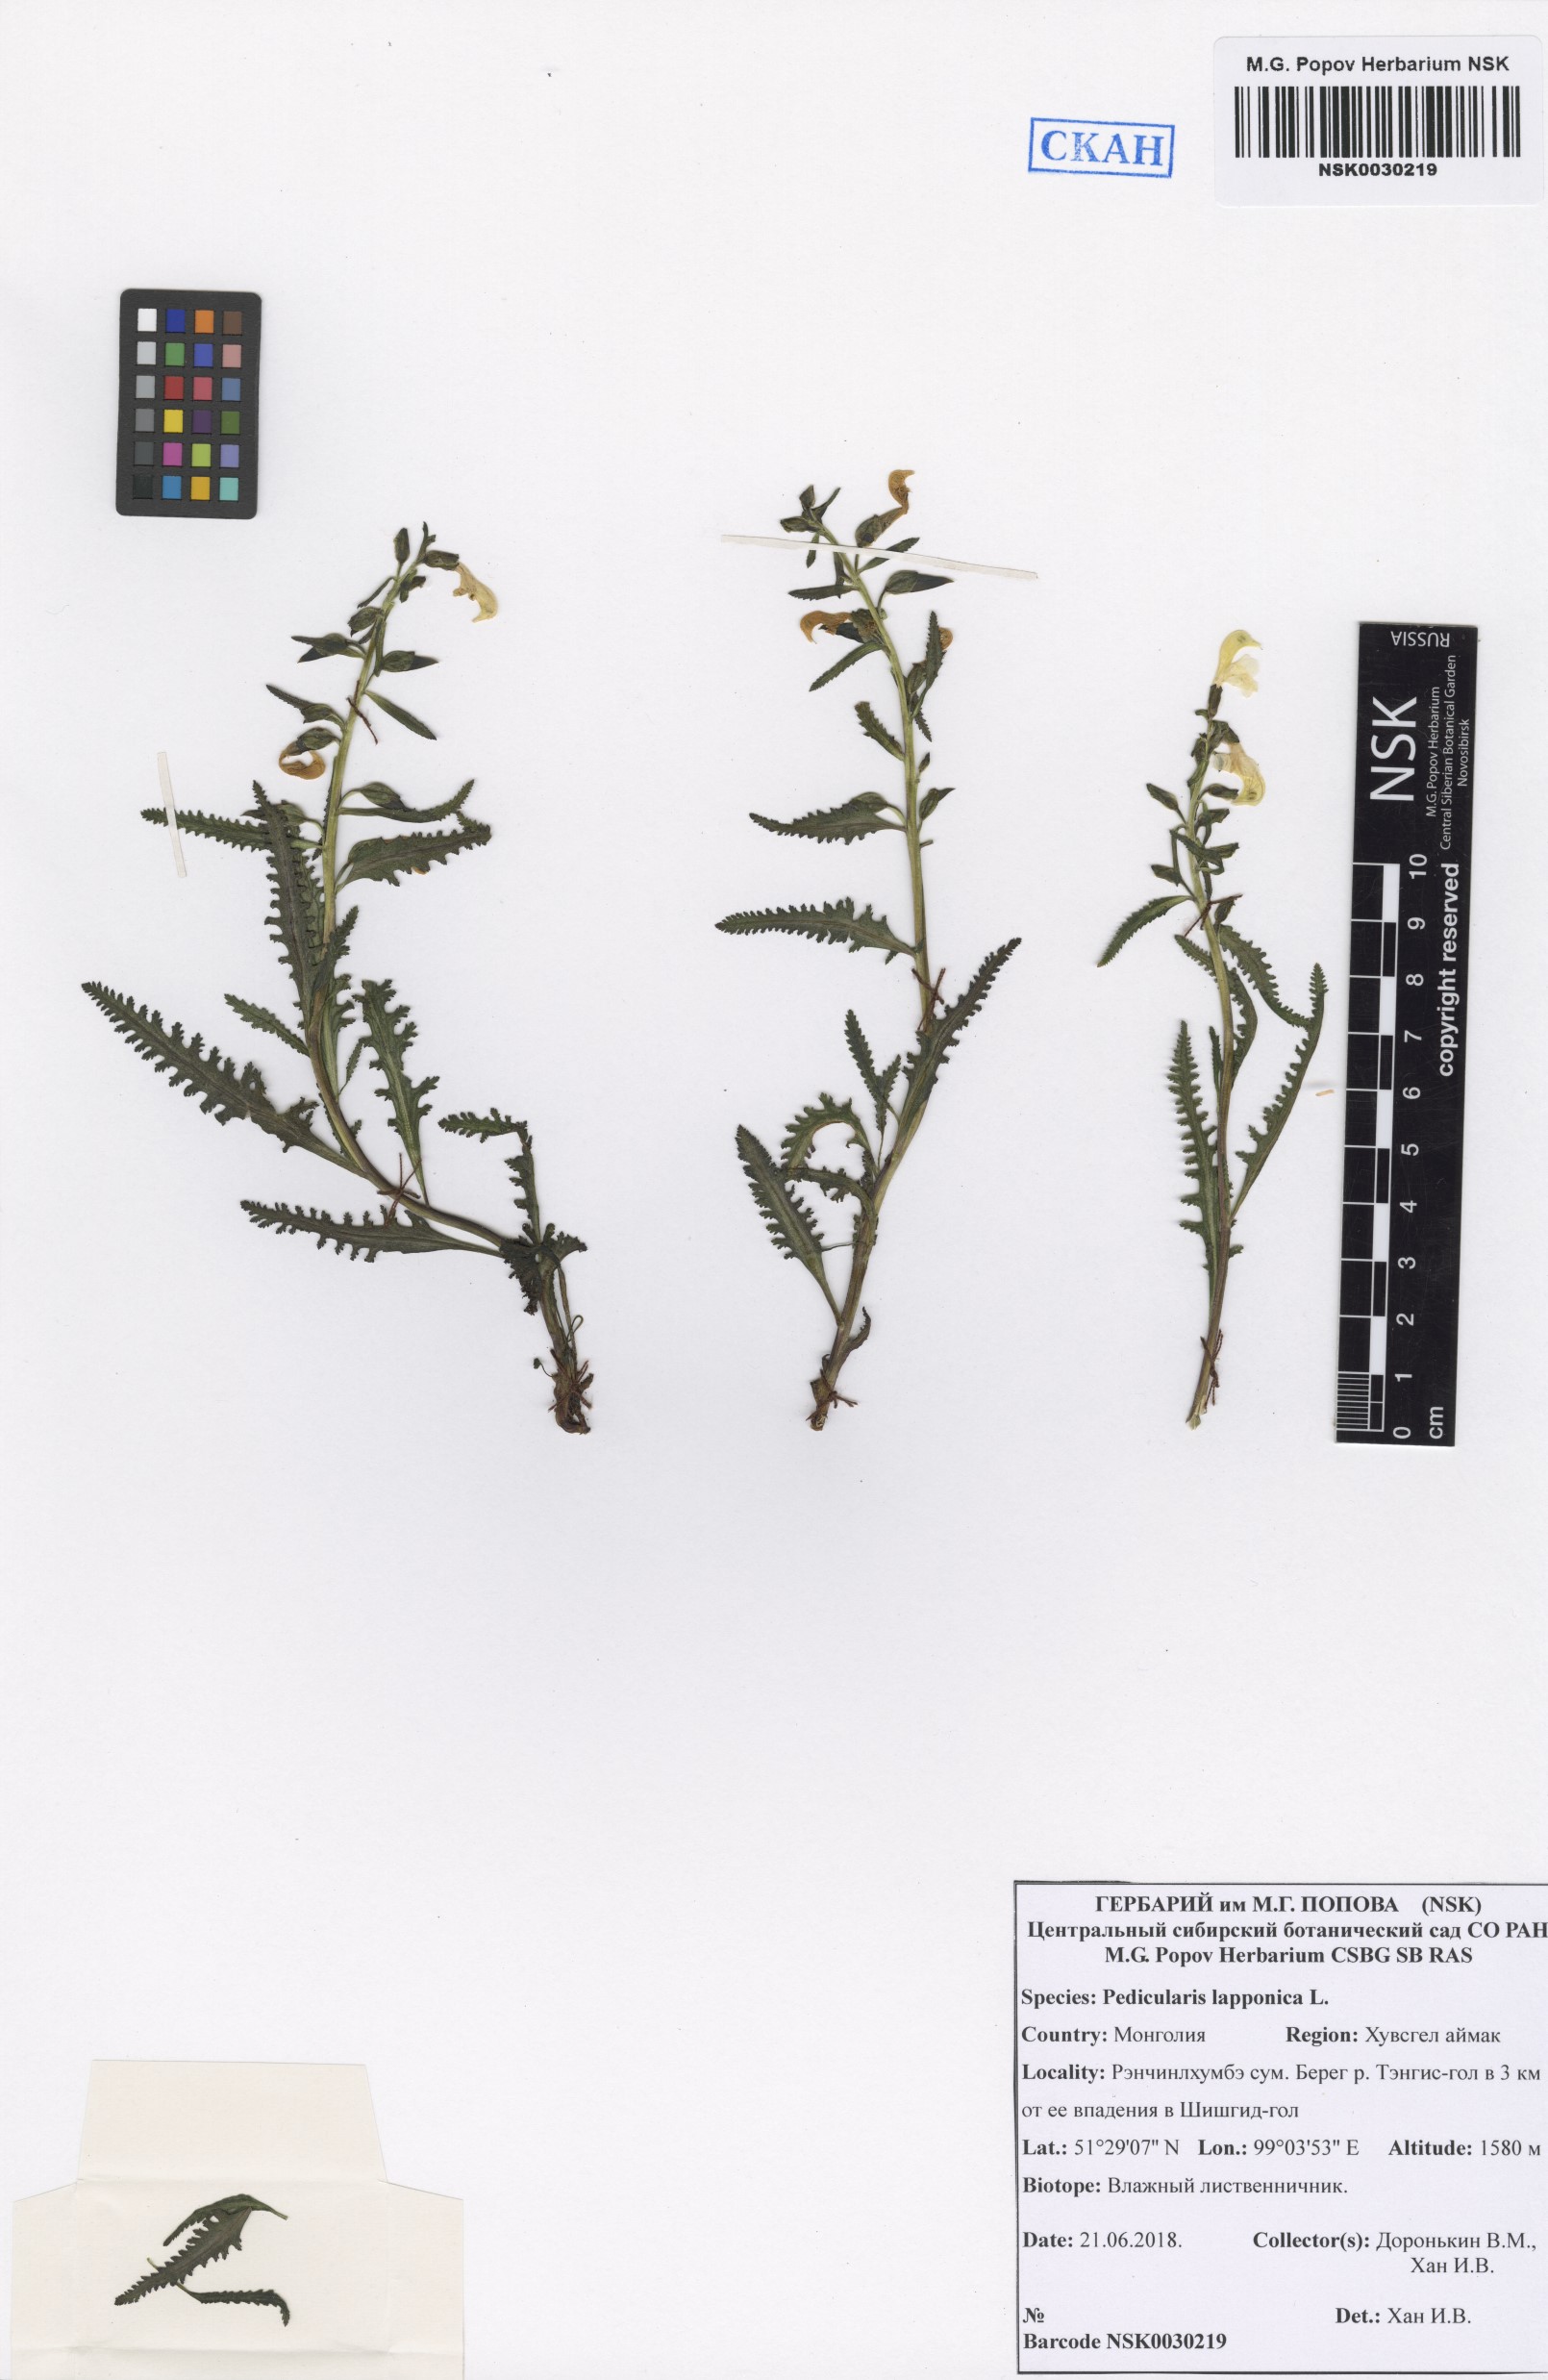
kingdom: Plantae
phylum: Tracheophyta
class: Magnoliopsida
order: Lamiales
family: Orobanchaceae
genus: Pedicularis
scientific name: Pedicularis lapponica
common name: Lapland lousewort
